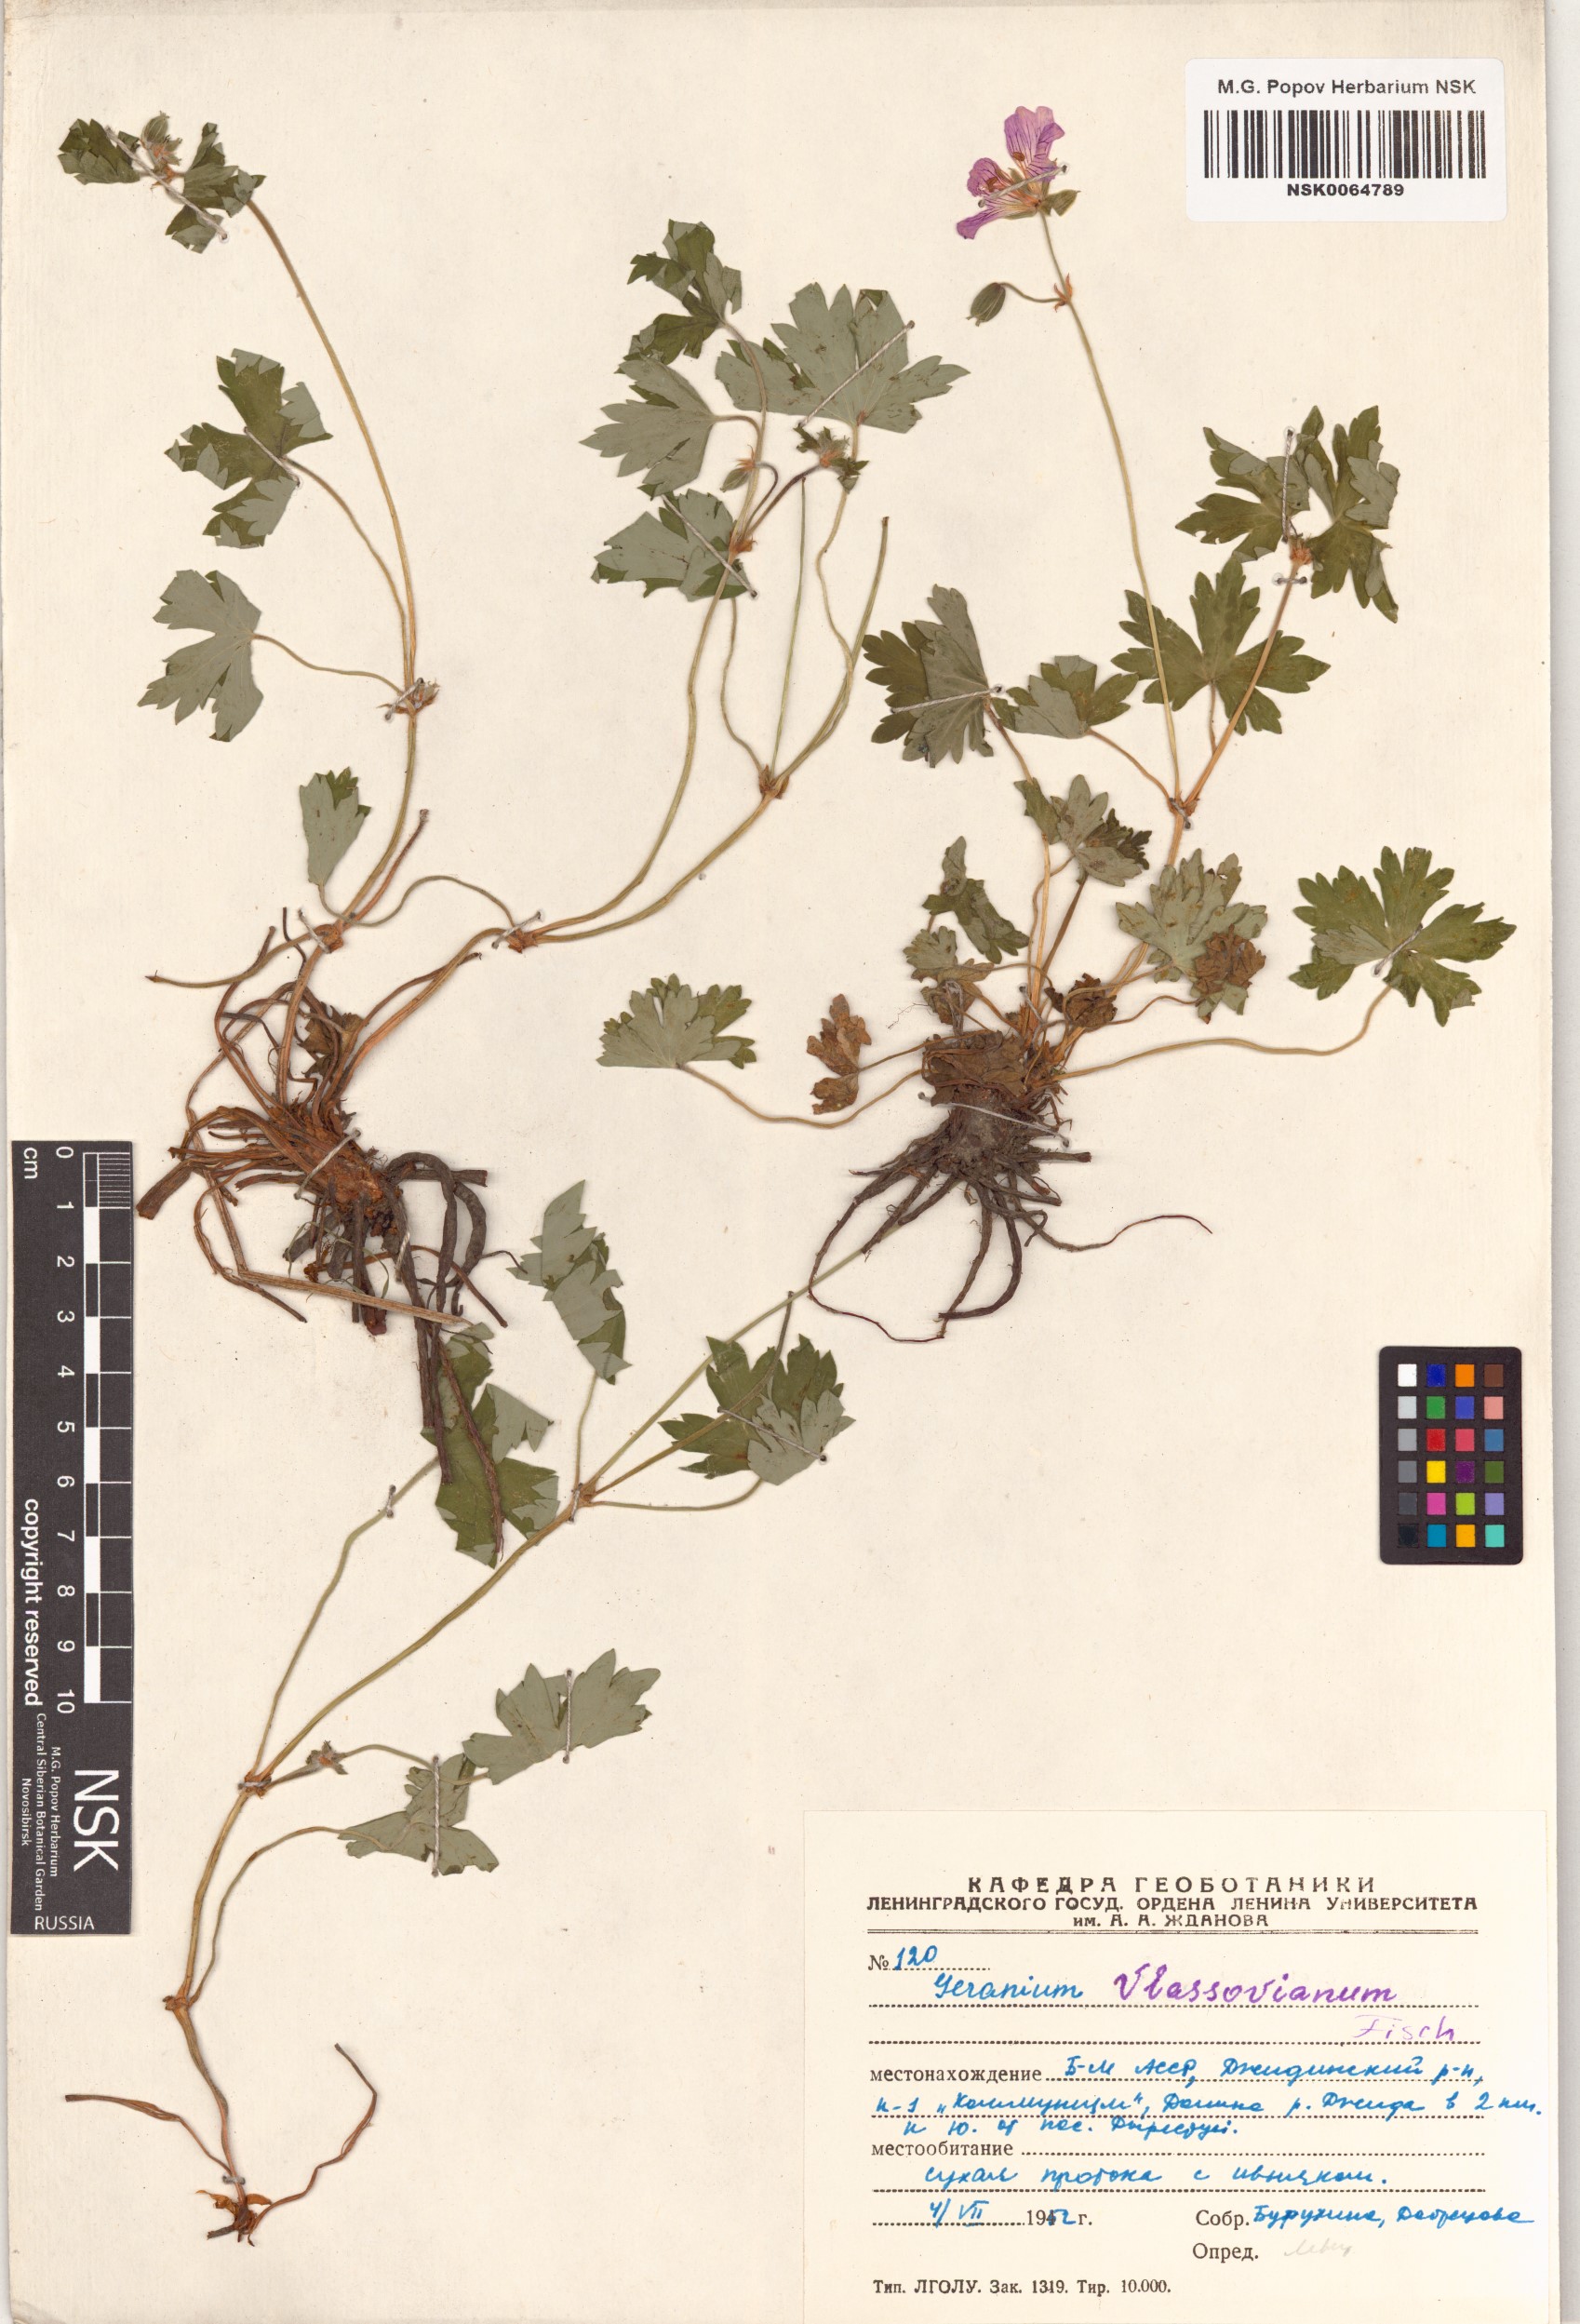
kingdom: Plantae
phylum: Tracheophyta
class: Magnoliopsida
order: Geraniales
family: Geraniaceae
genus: Geranium
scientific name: Geranium wlassovianum
